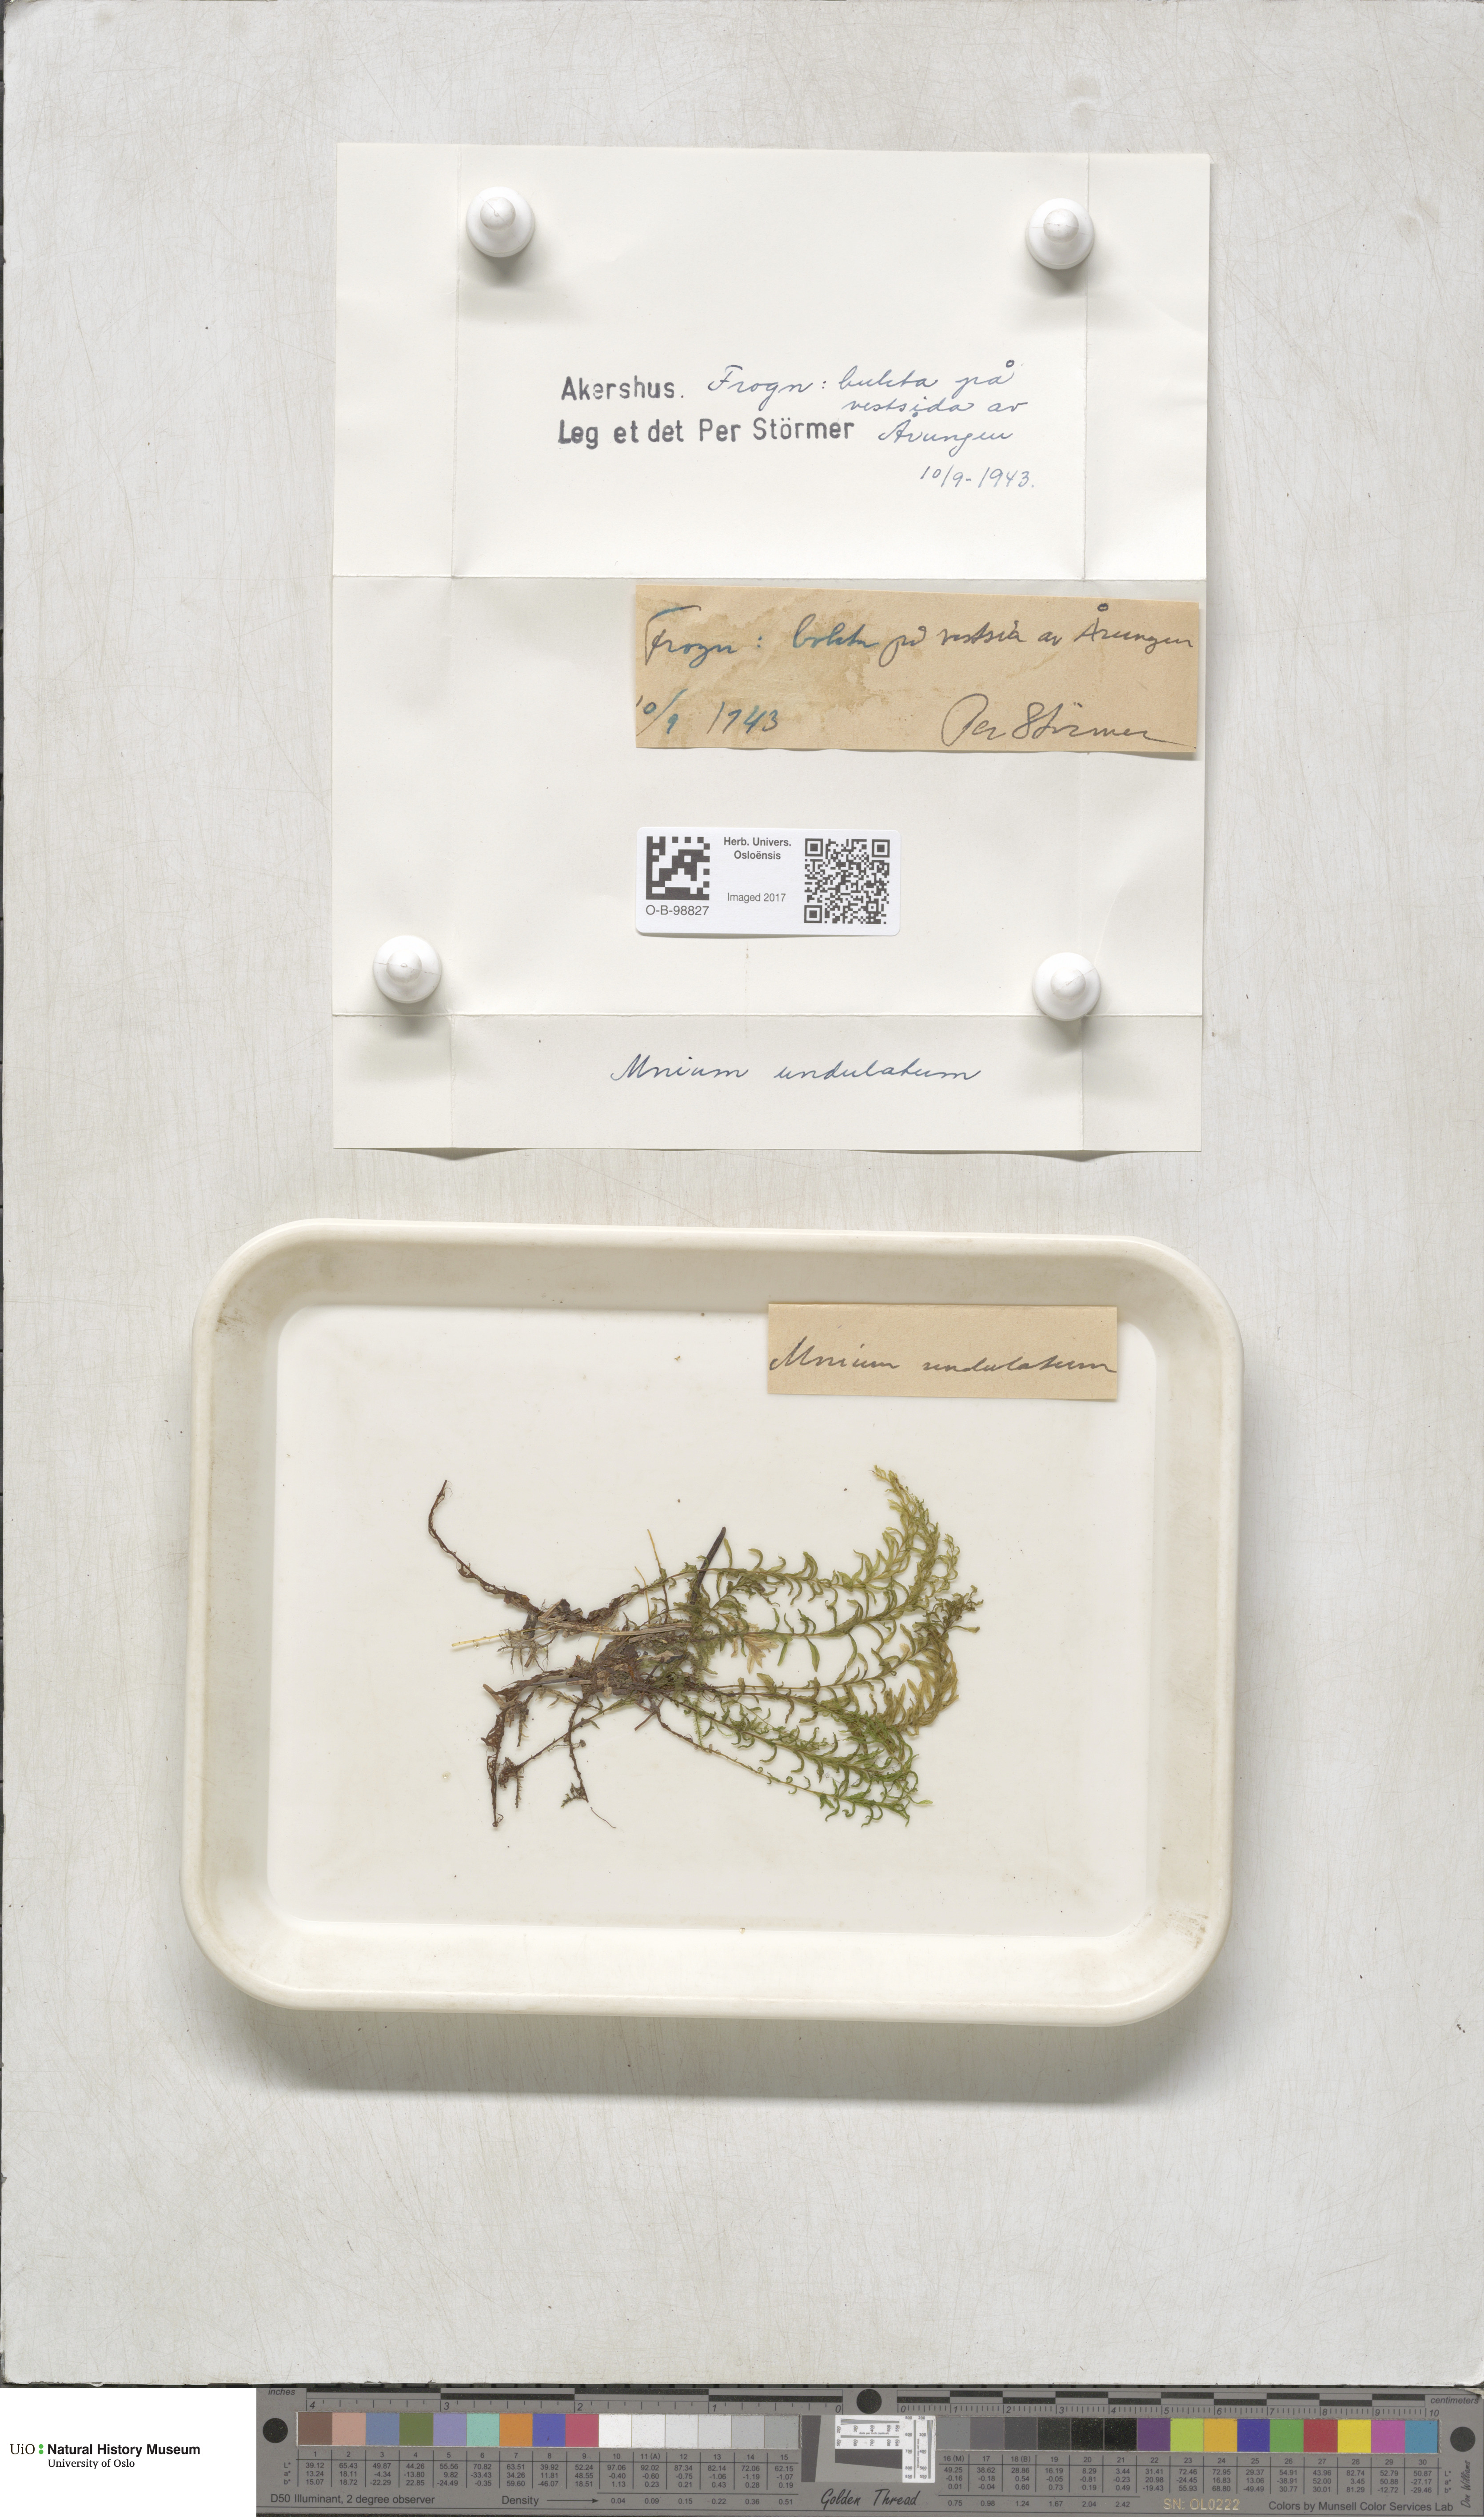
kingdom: Plantae
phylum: Bryophyta
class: Bryopsida
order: Bryales
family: Mniaceae
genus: Plagiomnium
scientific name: Plagiomnium undulatum
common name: Hart's-tongue thyme-moss
